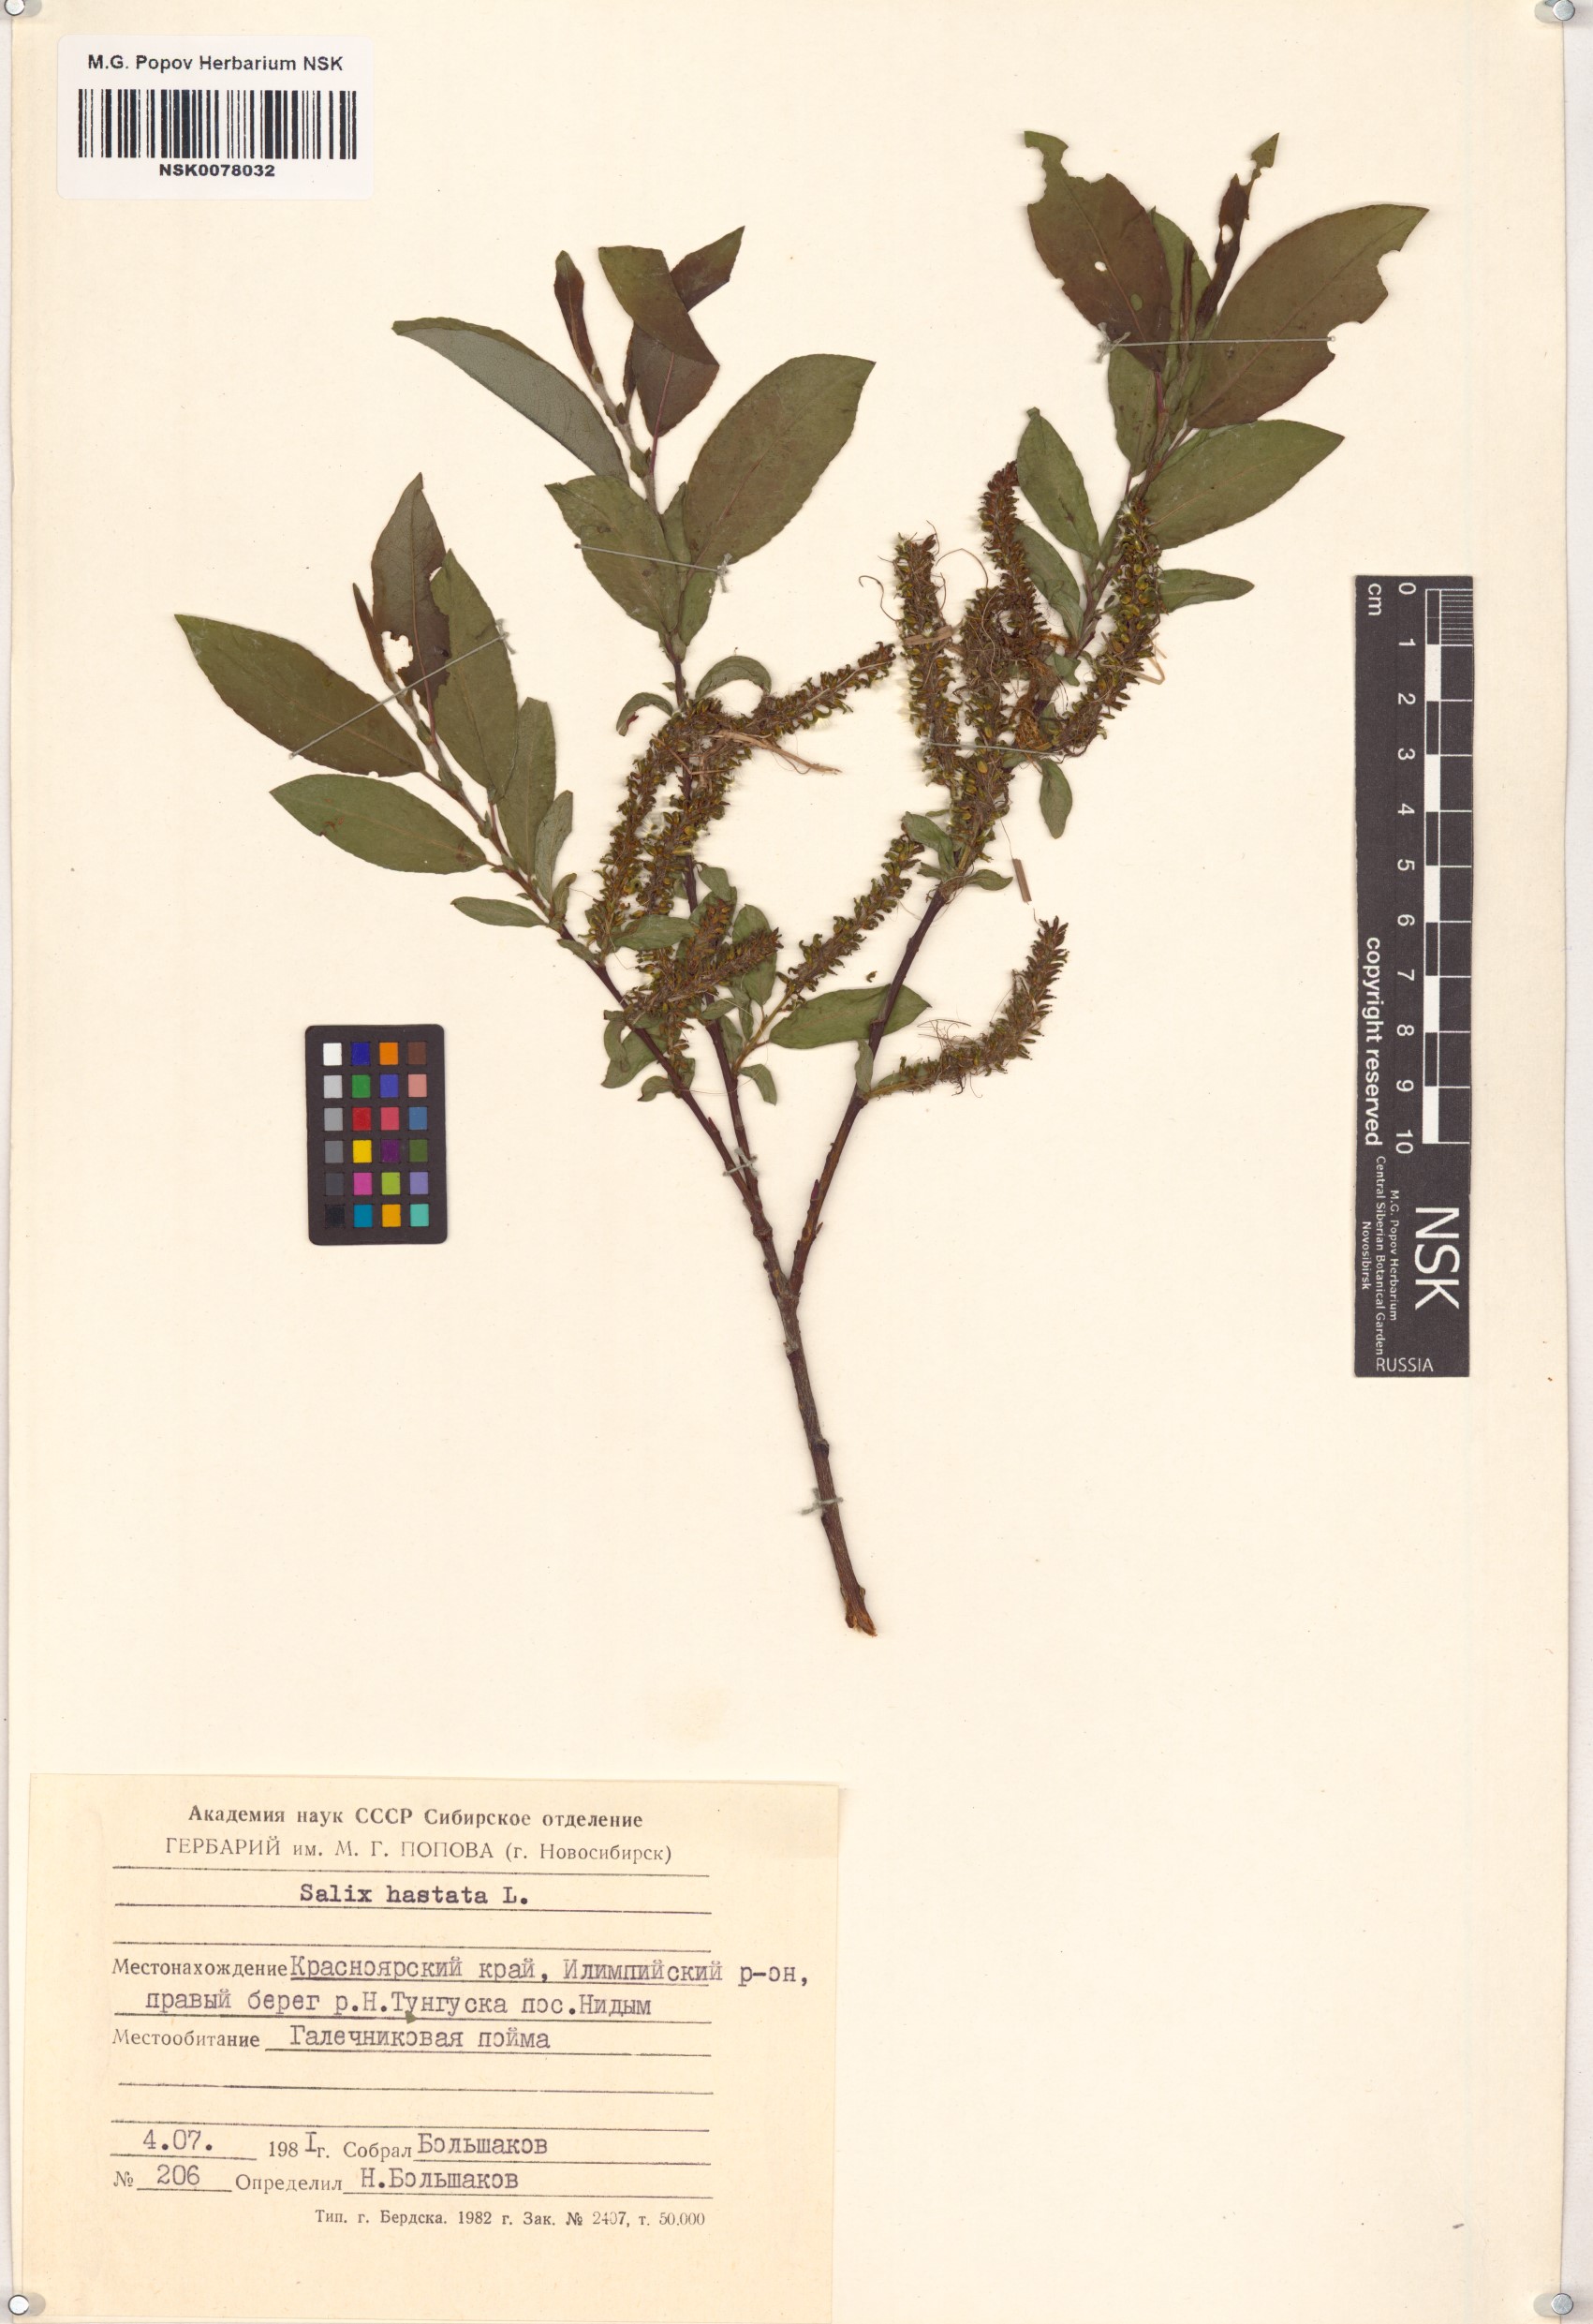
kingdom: Plantae
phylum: Tracheophyta
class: Magnoliopsida
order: Malpighiales
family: Salicaceae
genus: Salix
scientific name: Salix hastata
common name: Halberd willow
